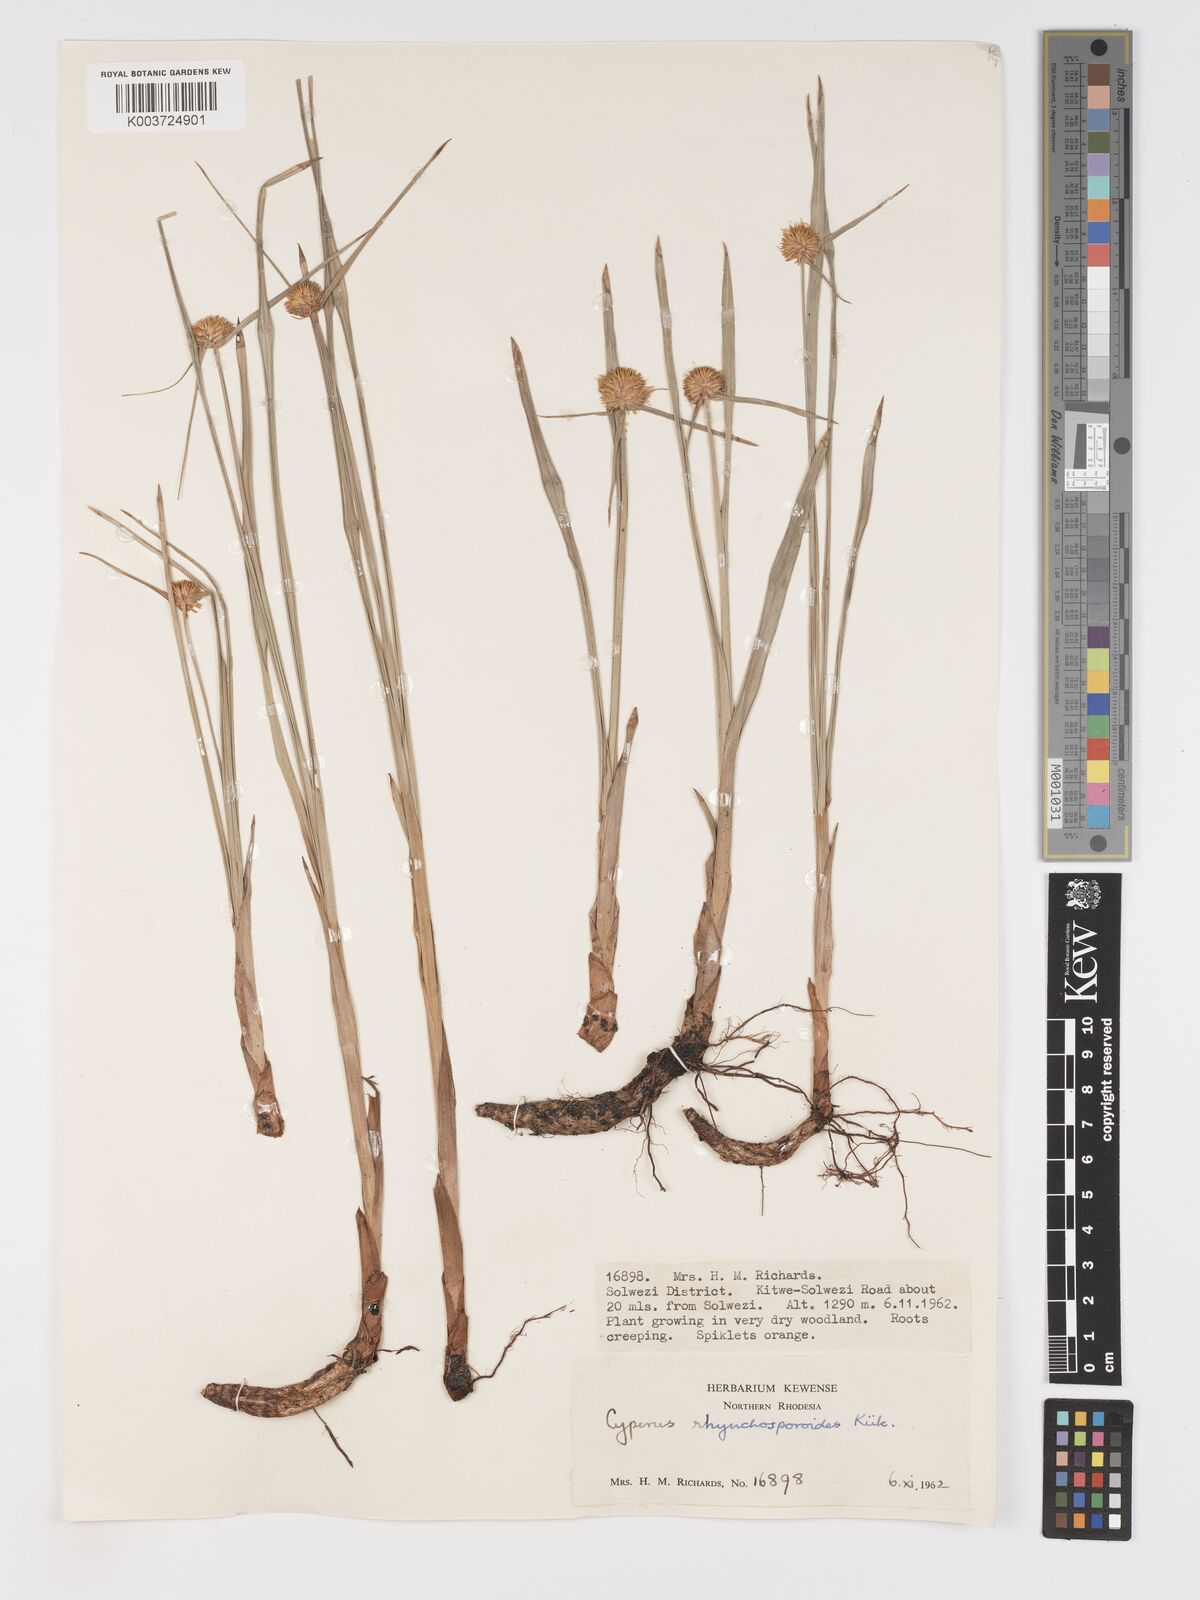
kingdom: Plantae
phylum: Tracheophyta
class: Liliopsida
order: Poales
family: Cyperaceae
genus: Cyperus
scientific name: Cyperus altochrysocephalus
